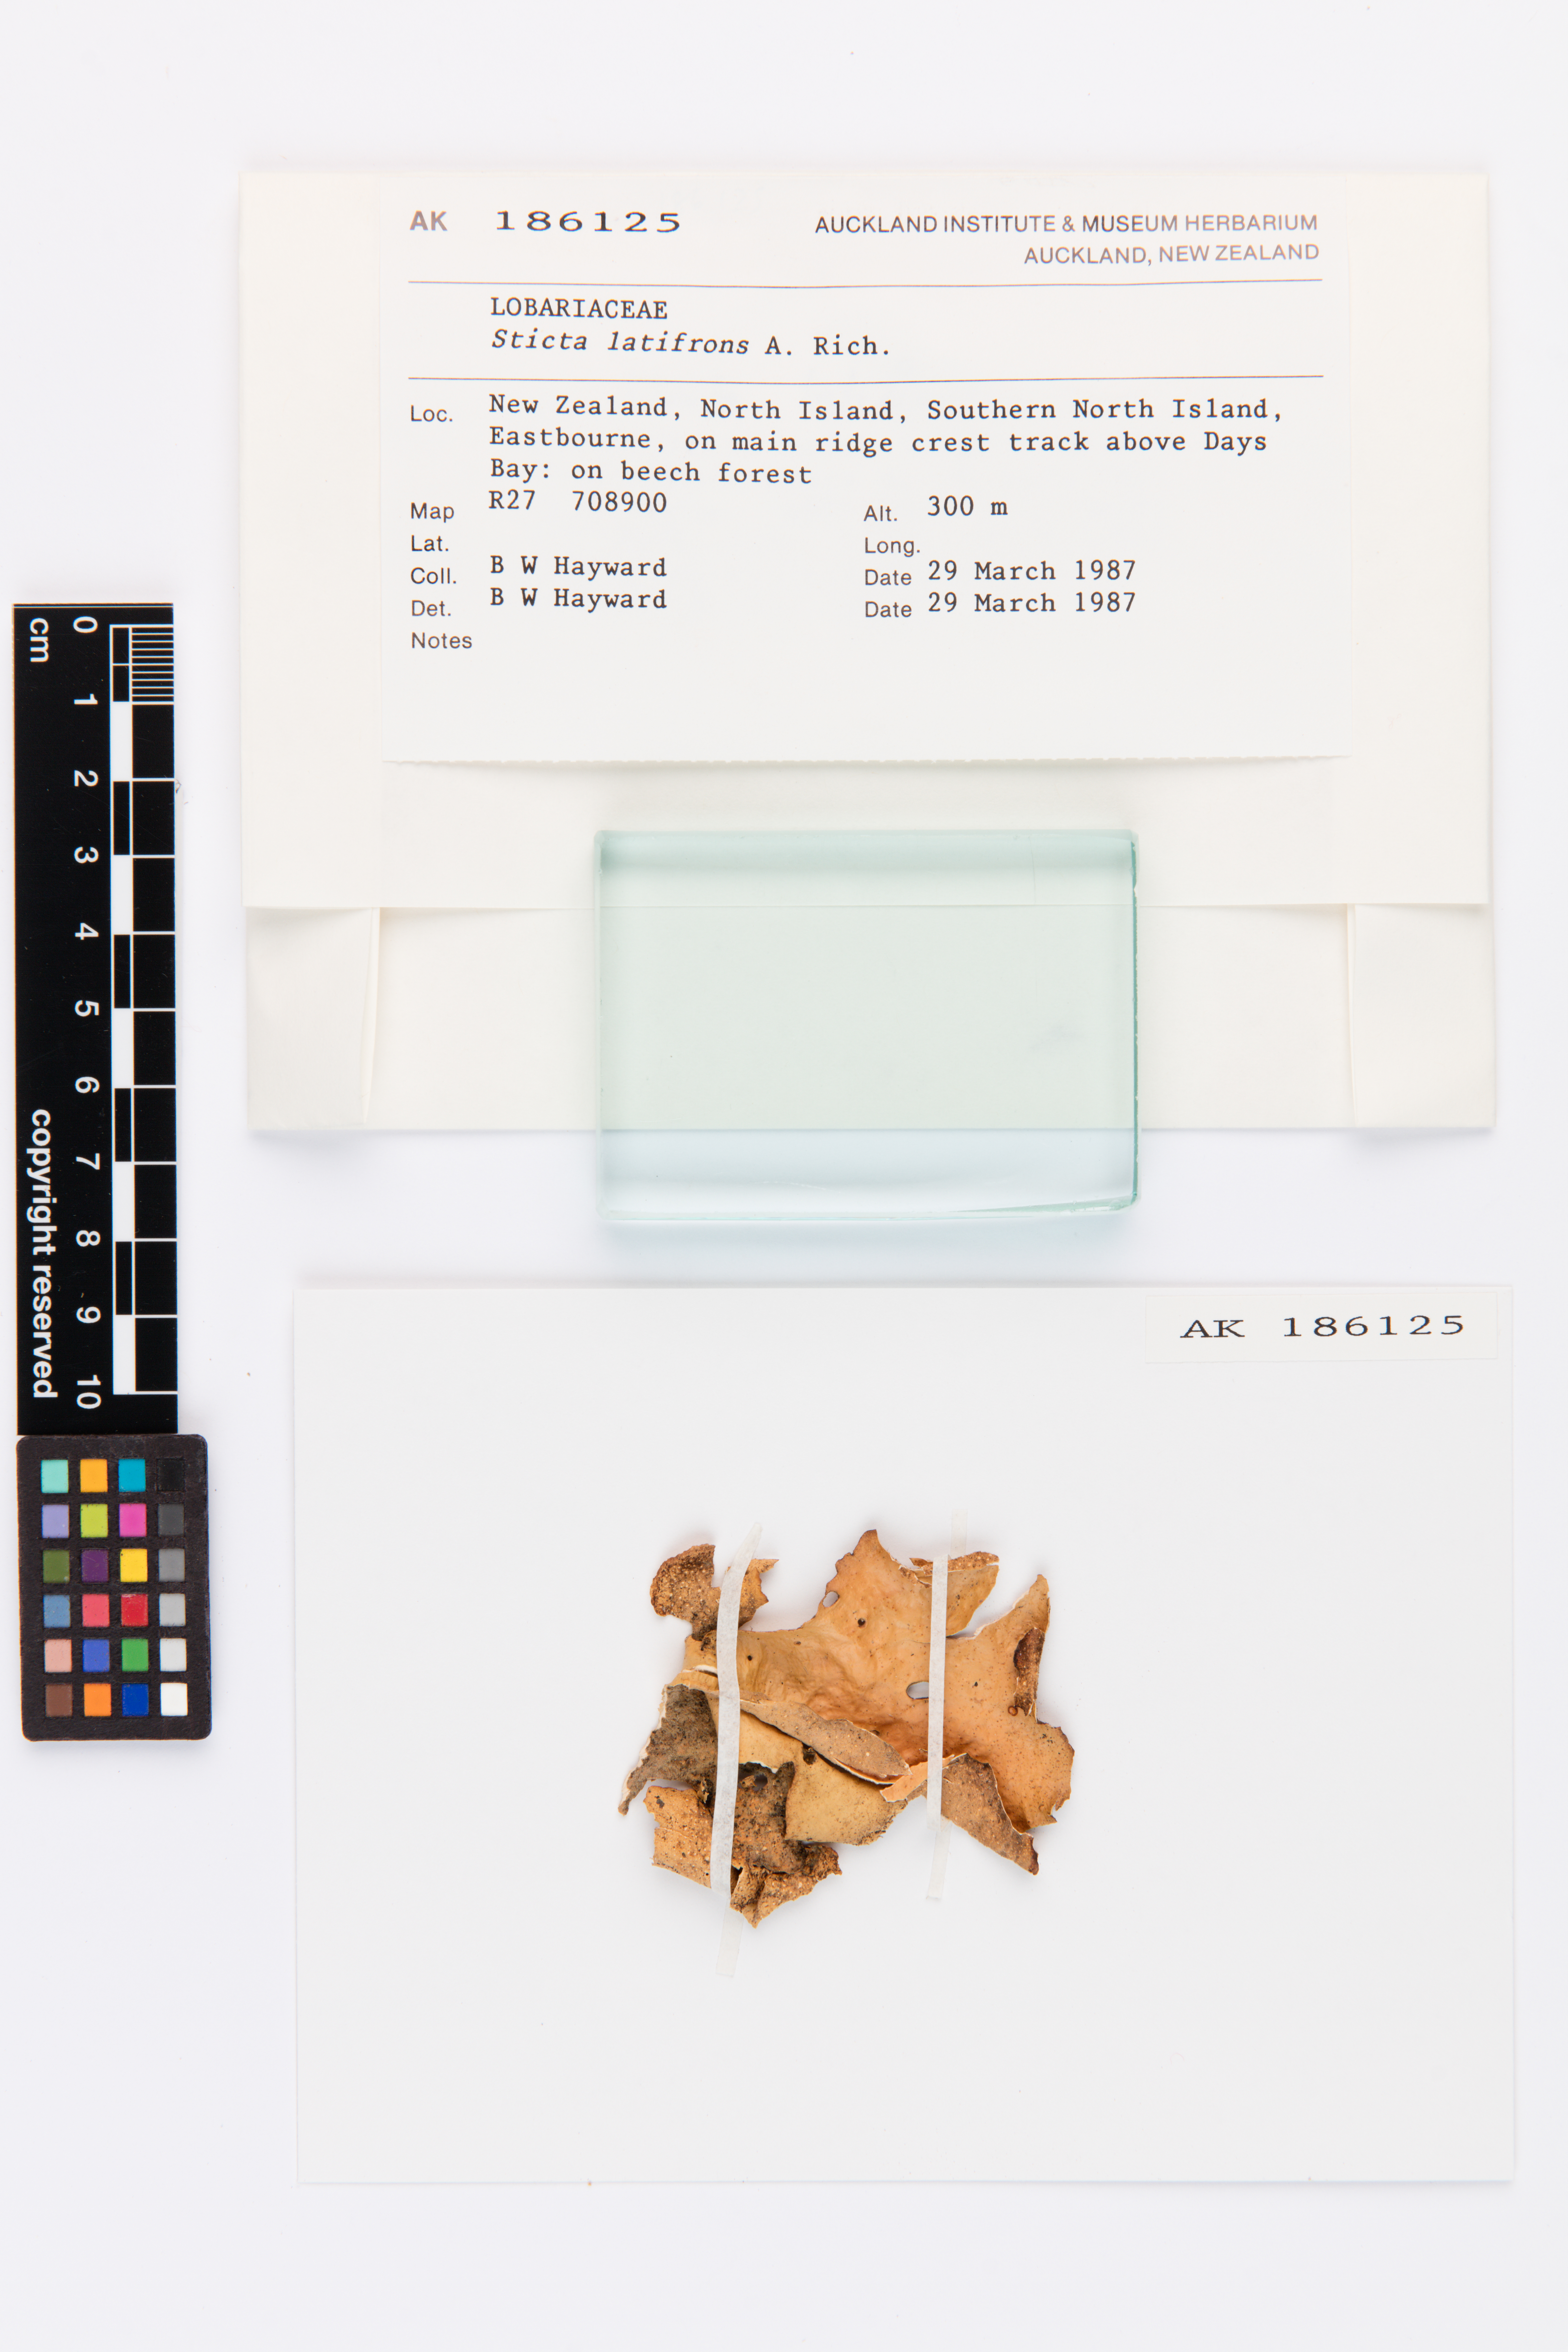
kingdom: Fungi
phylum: Ascomycota
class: Lecanoromycetes
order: Peltigerales
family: Lobariaceae
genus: Sticta
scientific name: Sticta latifrons
